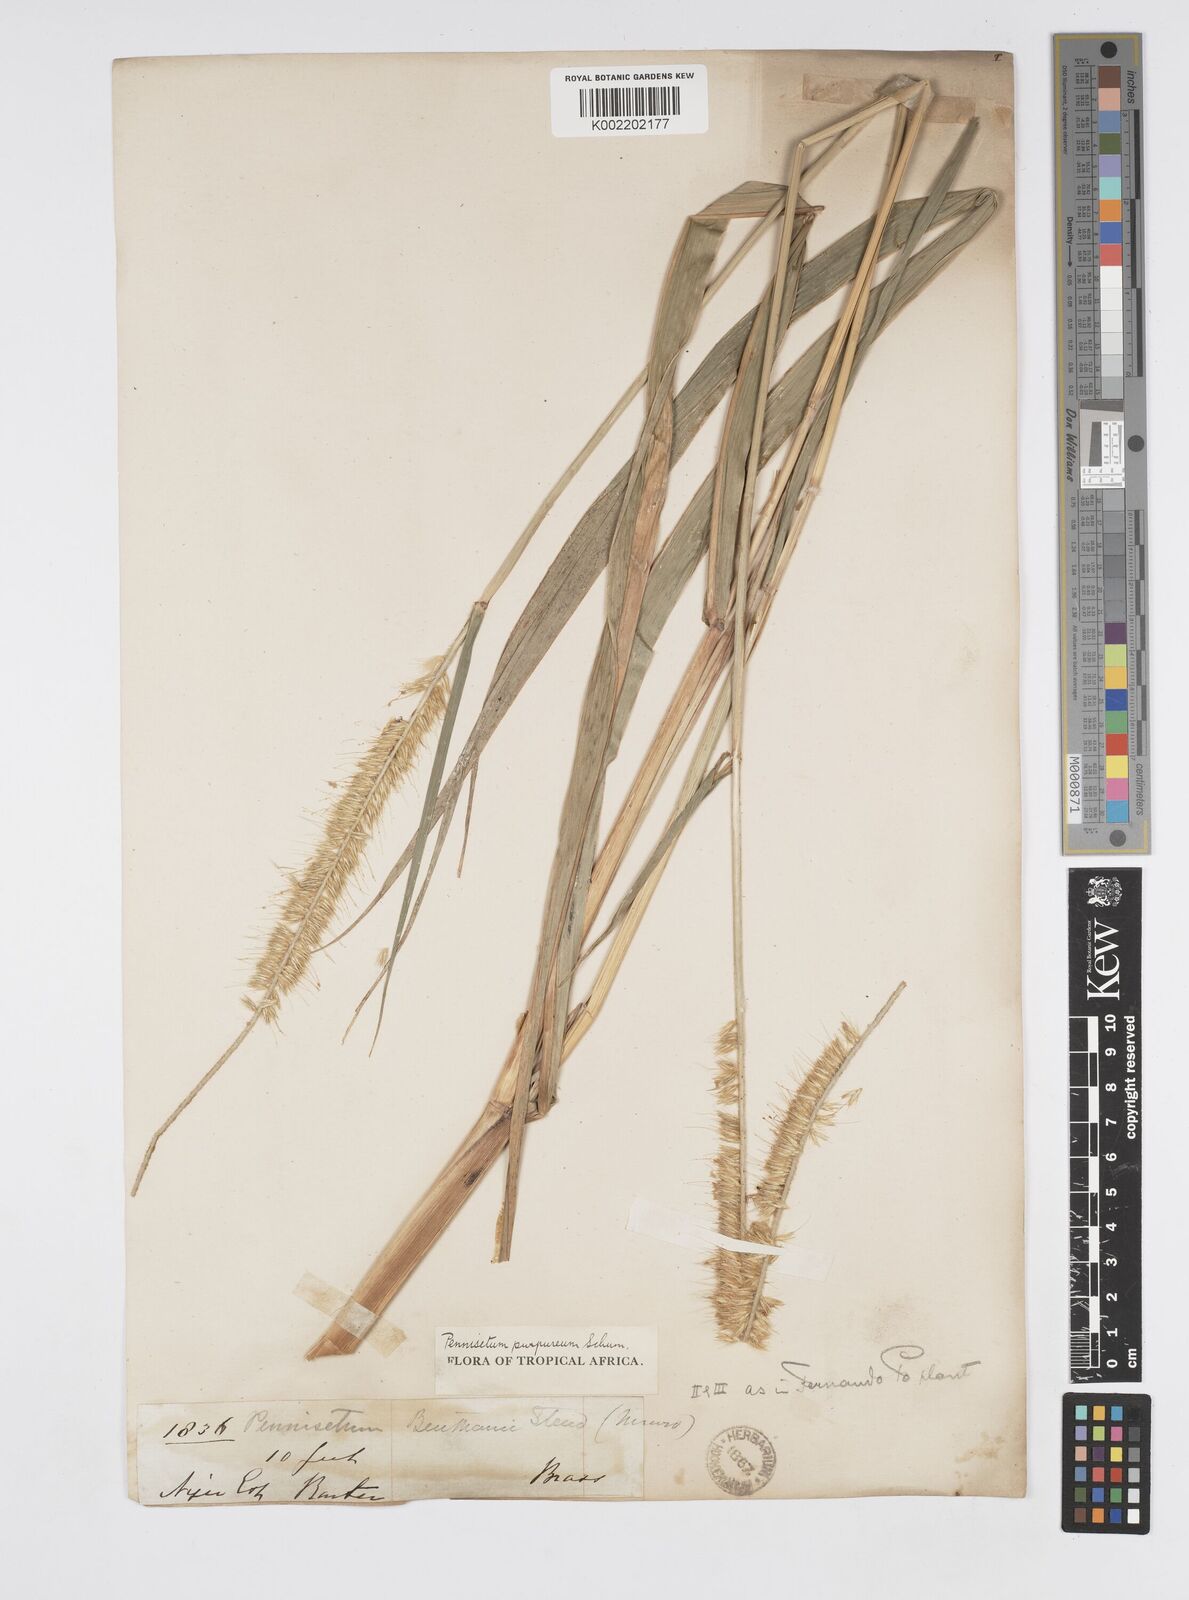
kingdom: Plantae
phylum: Tracheophyta
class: Liliopsida
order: Poales
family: Poaceae
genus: Cenchrus
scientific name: Cenchrus purpureus
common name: Elephant grass
